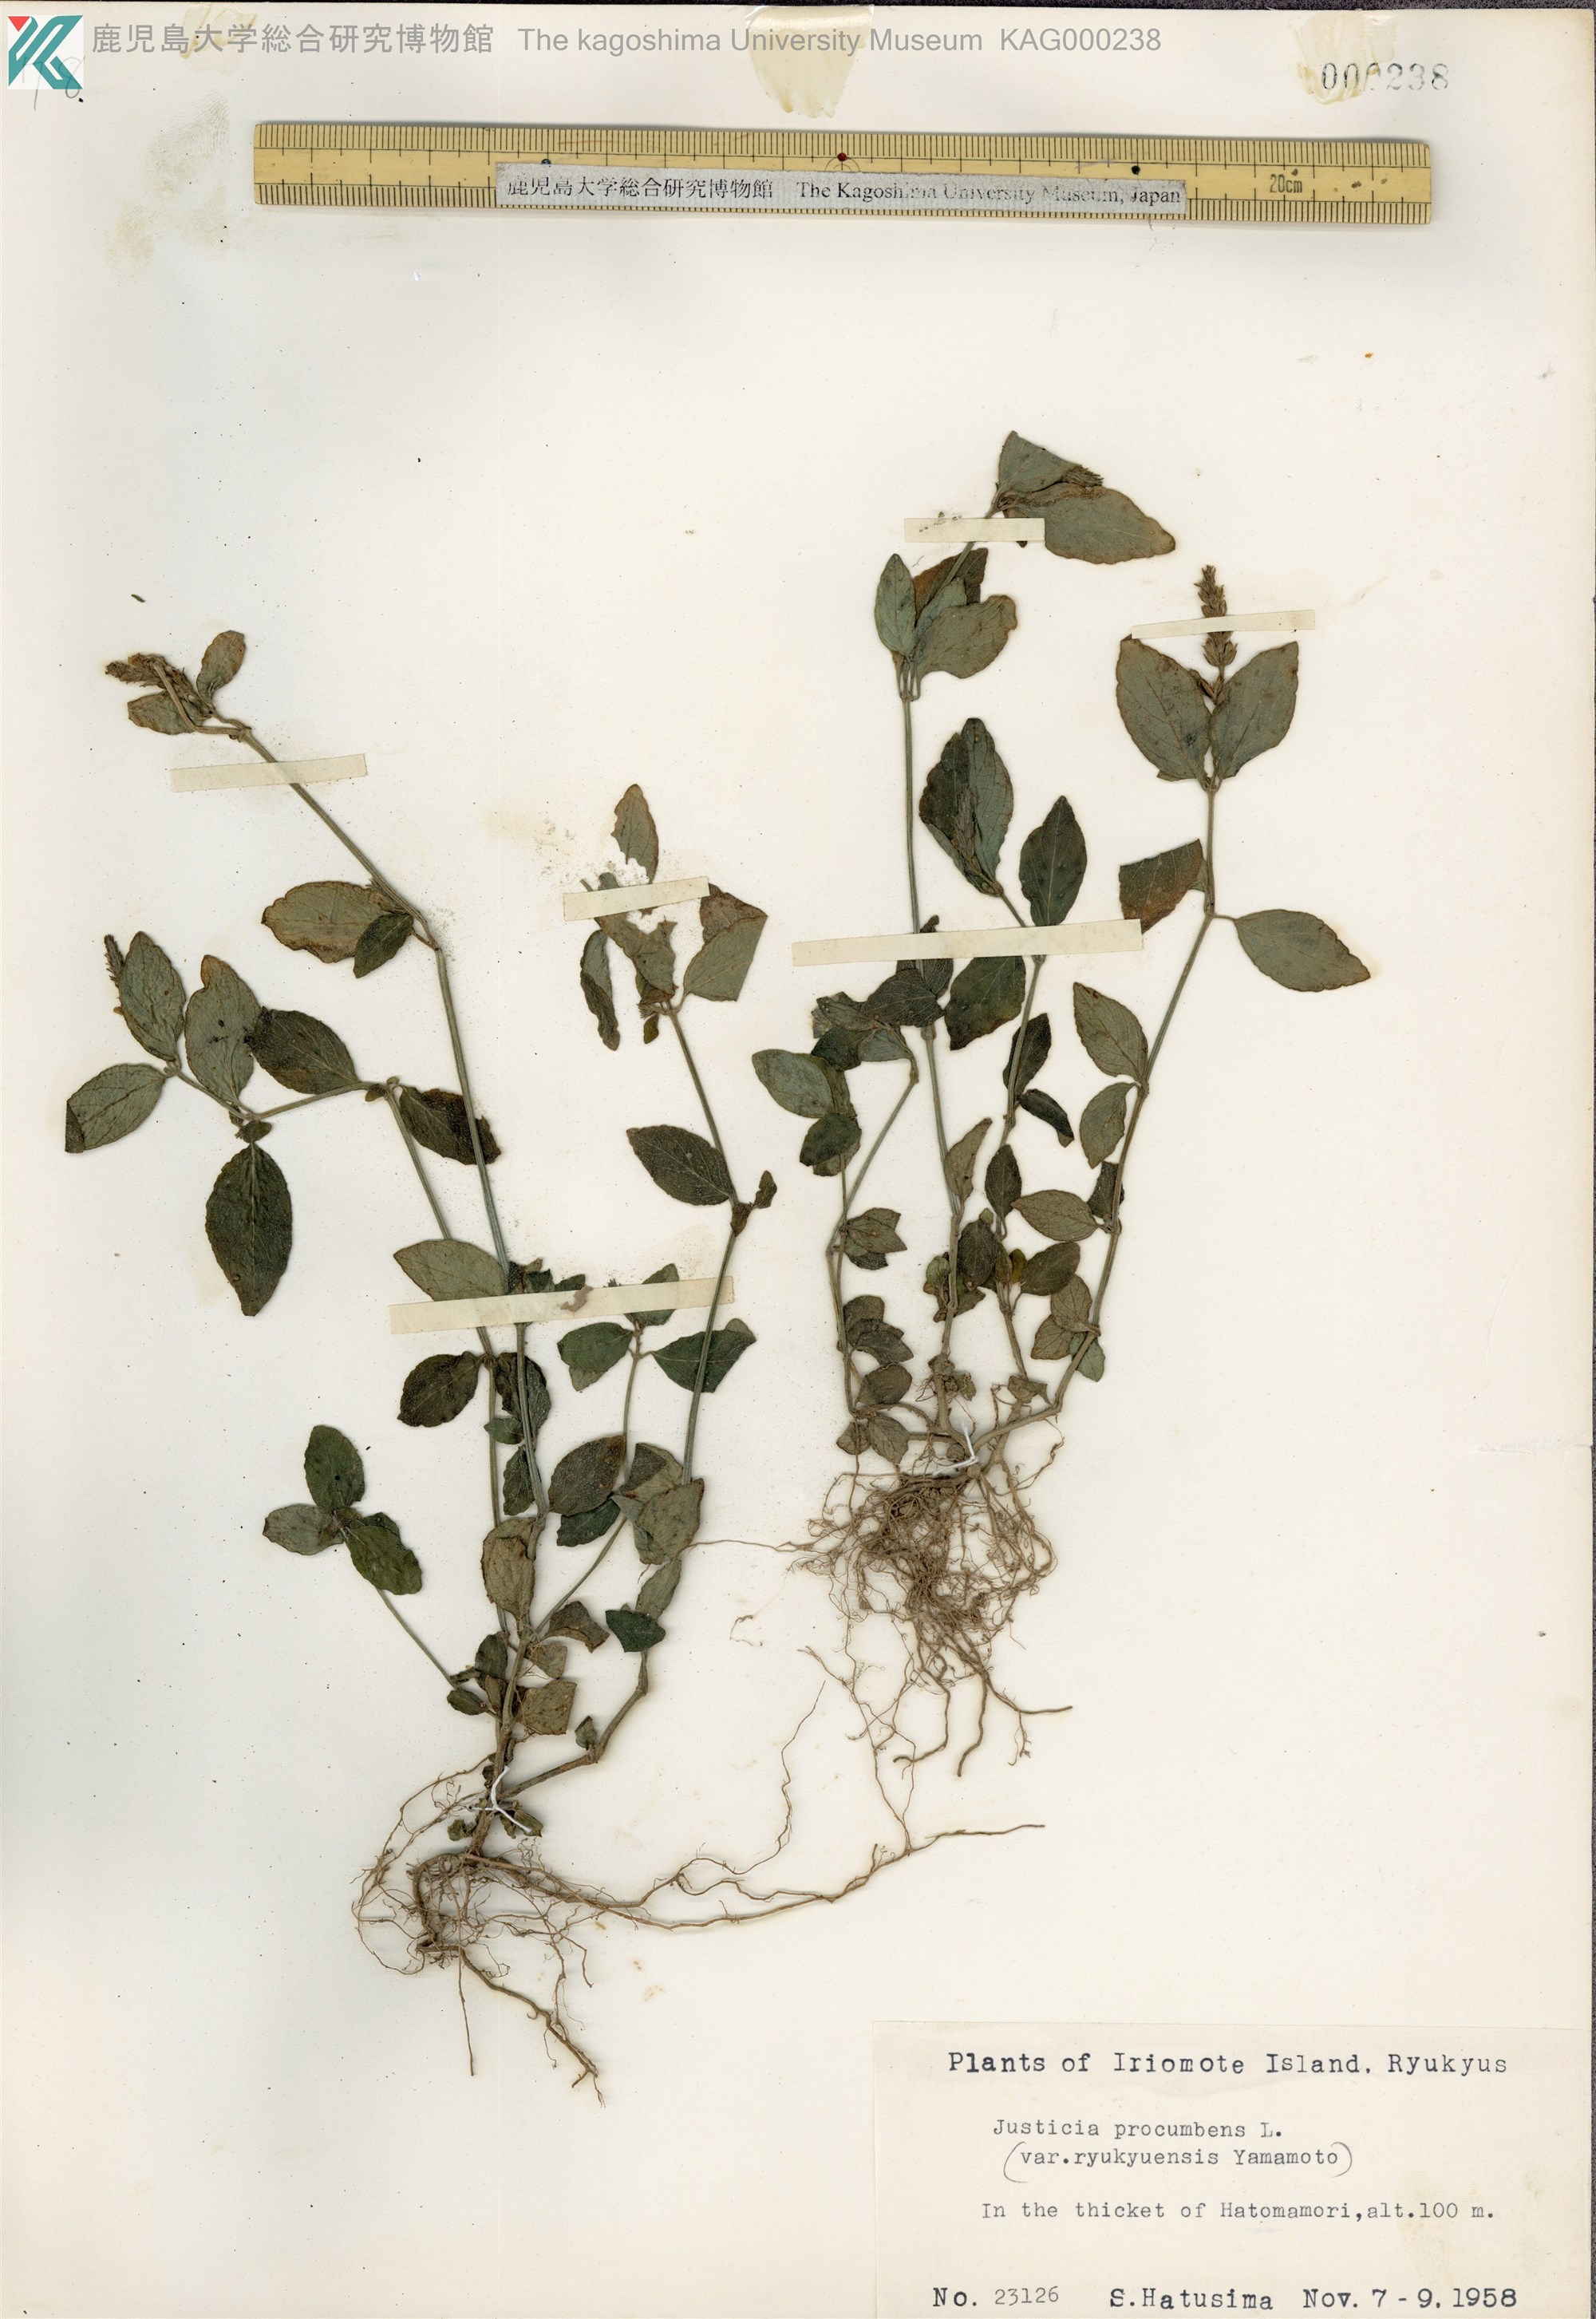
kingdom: Plantae
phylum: Tracheophyta
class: Magnoliopsida
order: Lamiales
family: Acanthaceae
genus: Rostellularia
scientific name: Rostellularia procumbens
